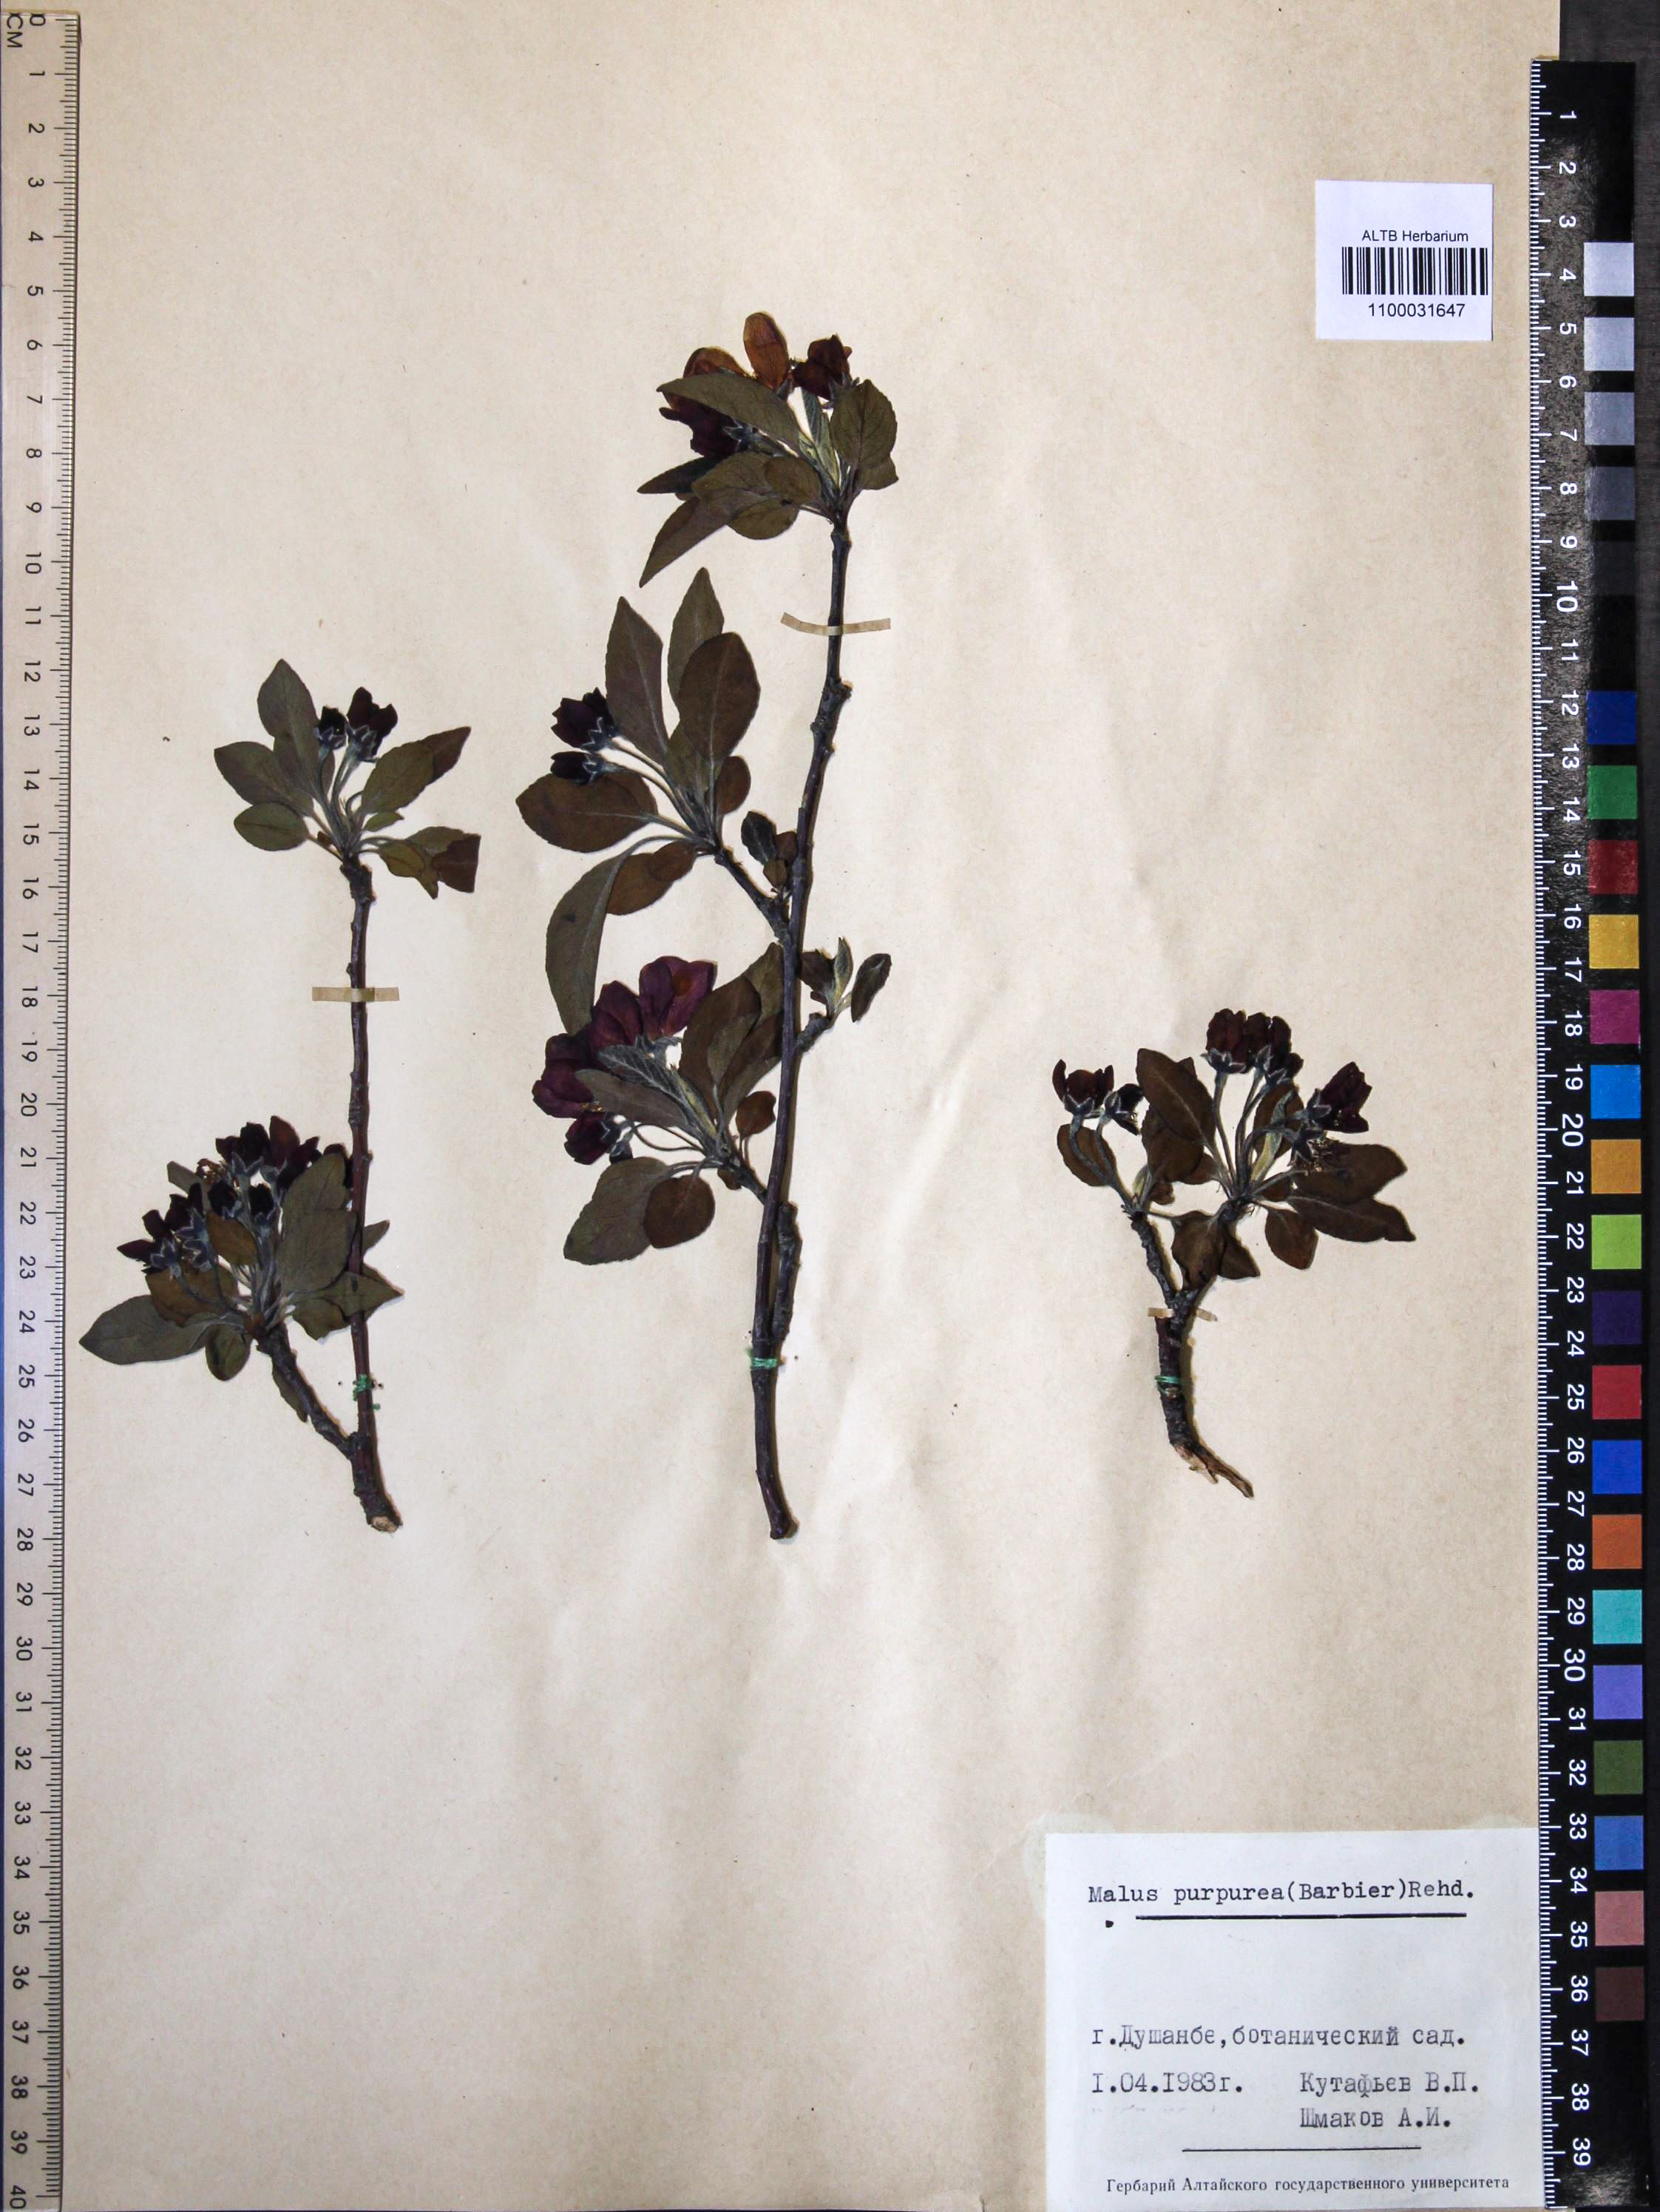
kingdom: Plantae
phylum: Tracheophyta
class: Magnoliopsida
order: Rosales
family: Rosaceae
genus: Malus
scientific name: Malus purpurea
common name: Purple crab apple
